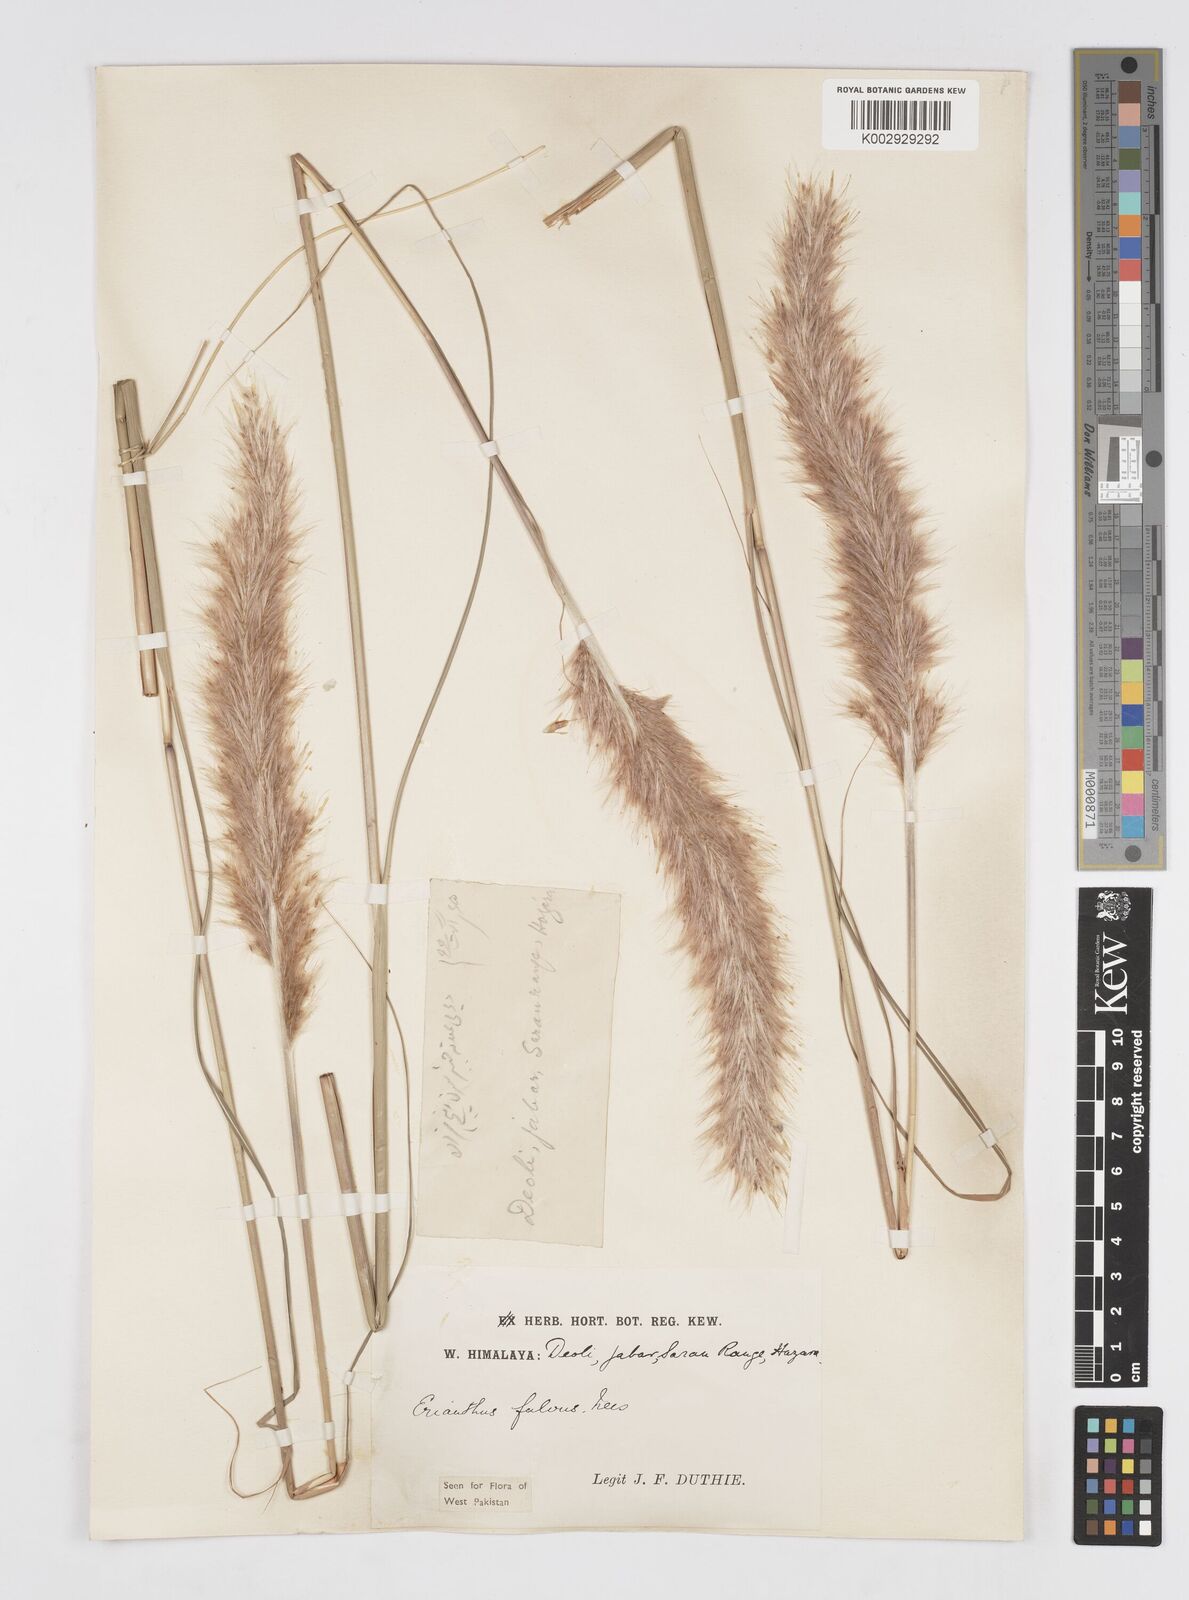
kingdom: Plantae
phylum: Tracheophyta
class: Liliopsida
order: Poales
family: Poaceae
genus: Tripidium
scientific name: Tripidium rufipilum
